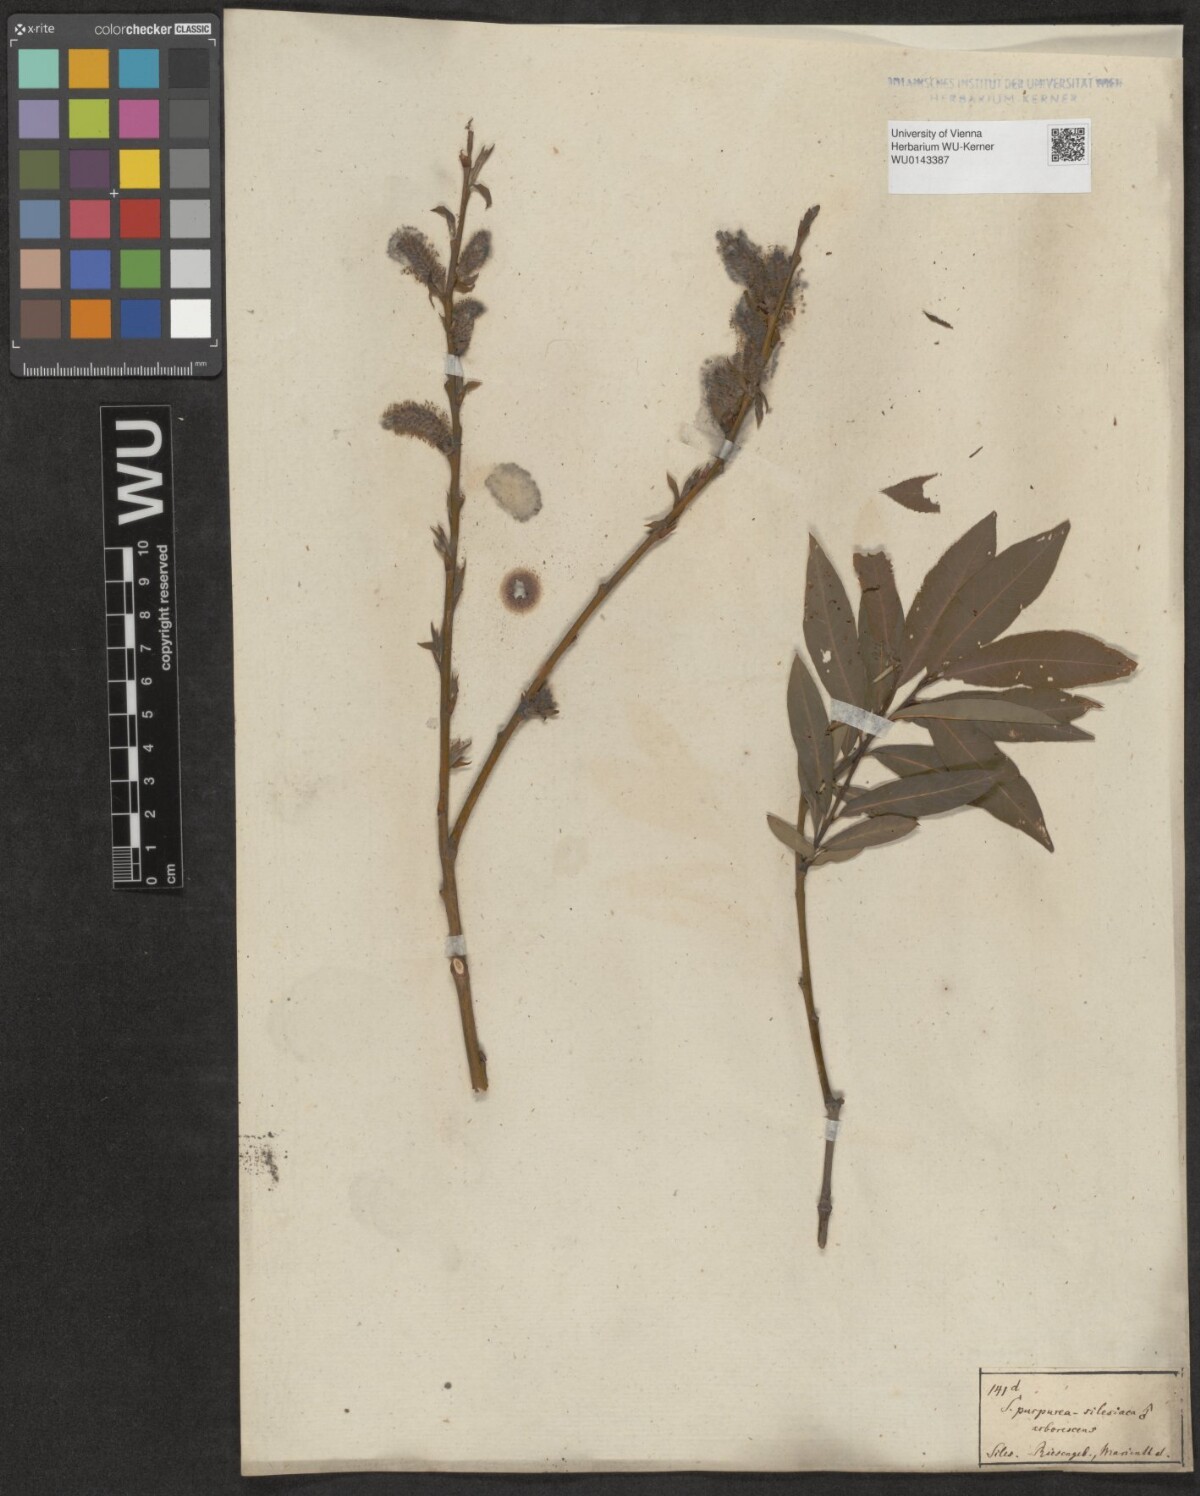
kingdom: Plantae
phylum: Tracheophyta
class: Magnoliopsida
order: Malpighiales
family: Salicaceae
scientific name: Salicaceae
